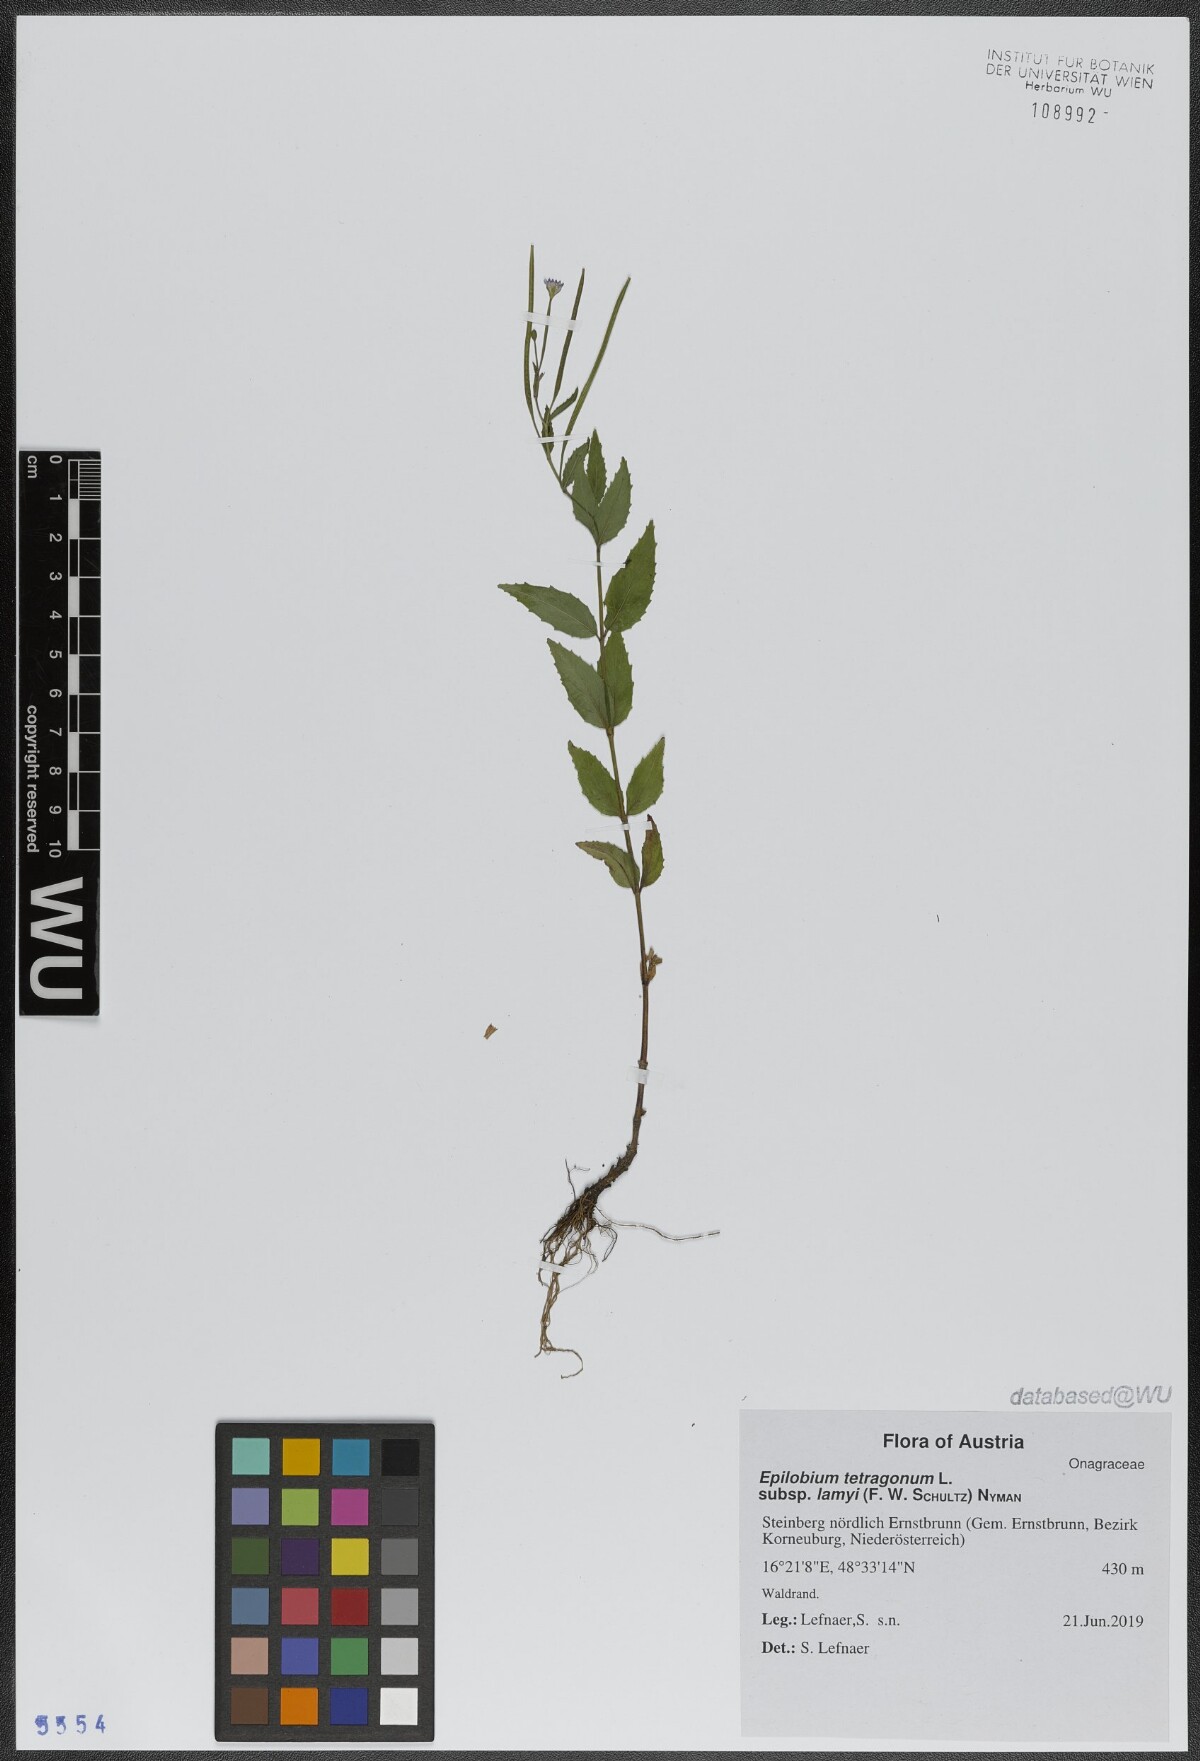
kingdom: Plantae
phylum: Tracheophyta
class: Magnoliopsida
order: Myrtales
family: Onagraceae
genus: Epilobium
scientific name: Epilobium lamyi
